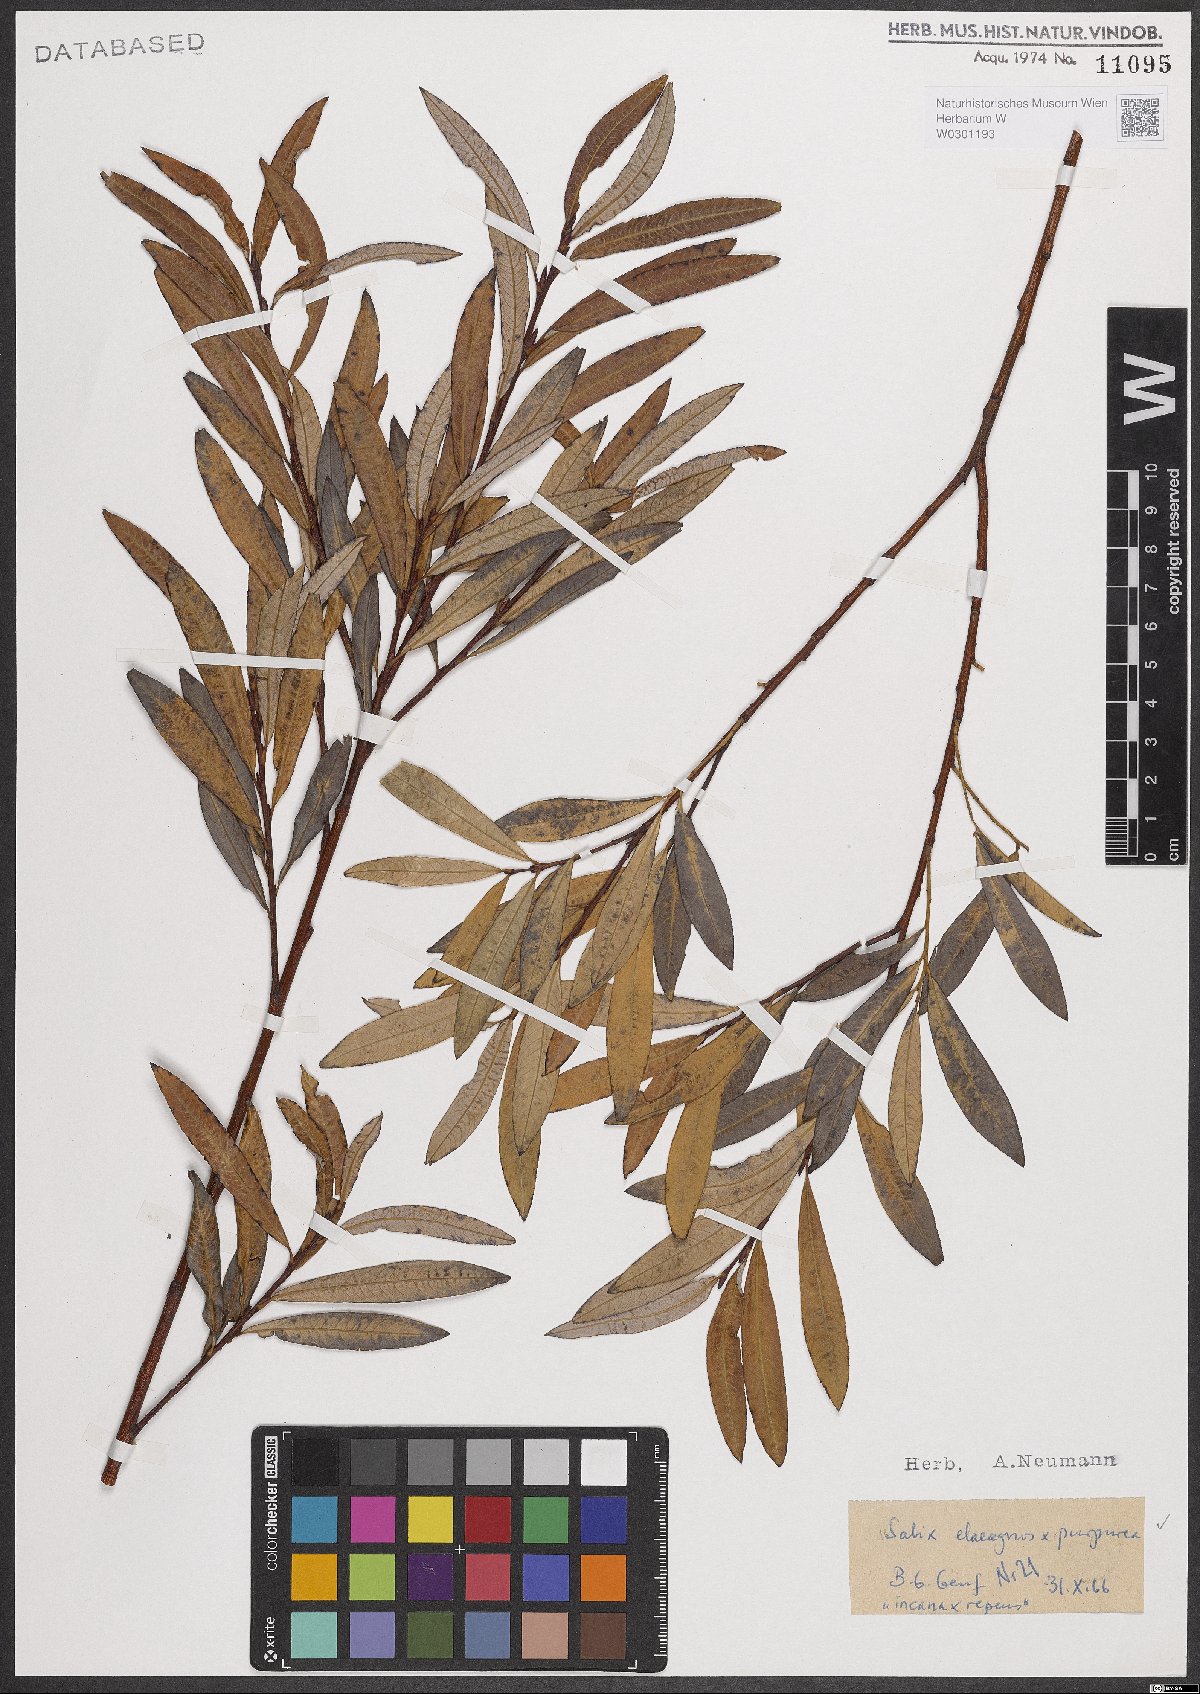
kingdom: Plantae
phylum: Tracheophyta
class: Magnoliopsida
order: Malpighiales
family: Salicaceae
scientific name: Salicaceae
